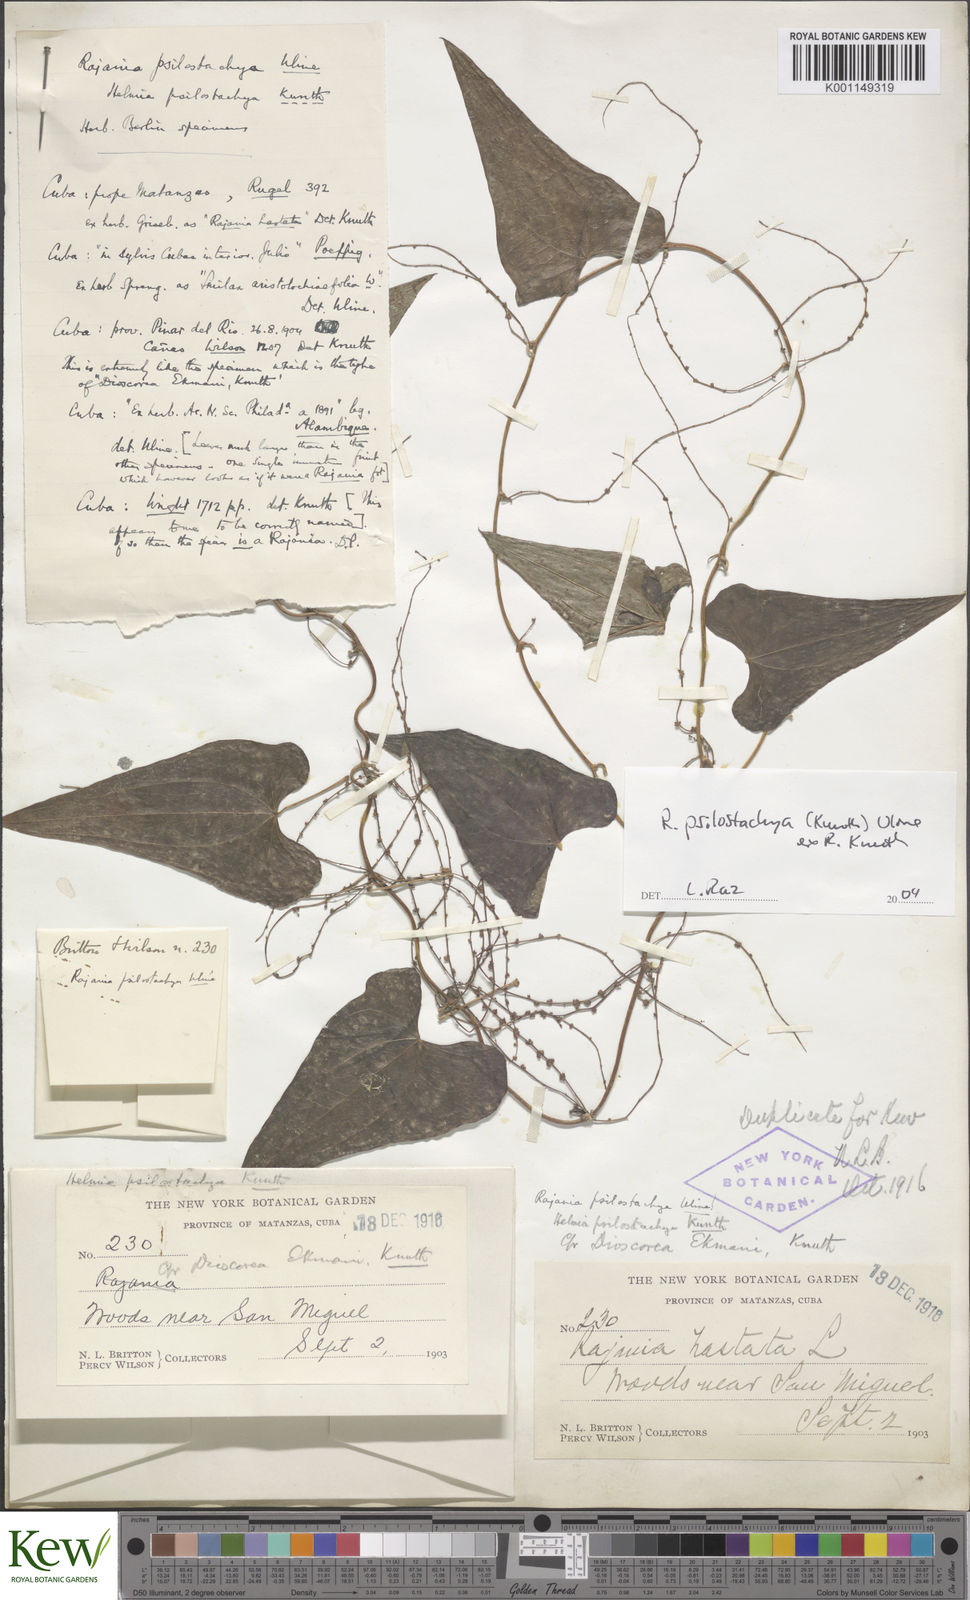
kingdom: Plantae
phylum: Tracheophyta
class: Liliopsida
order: Dioscoreales
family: Dioscoreaceae
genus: Dioscorea
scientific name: Dioscorea
